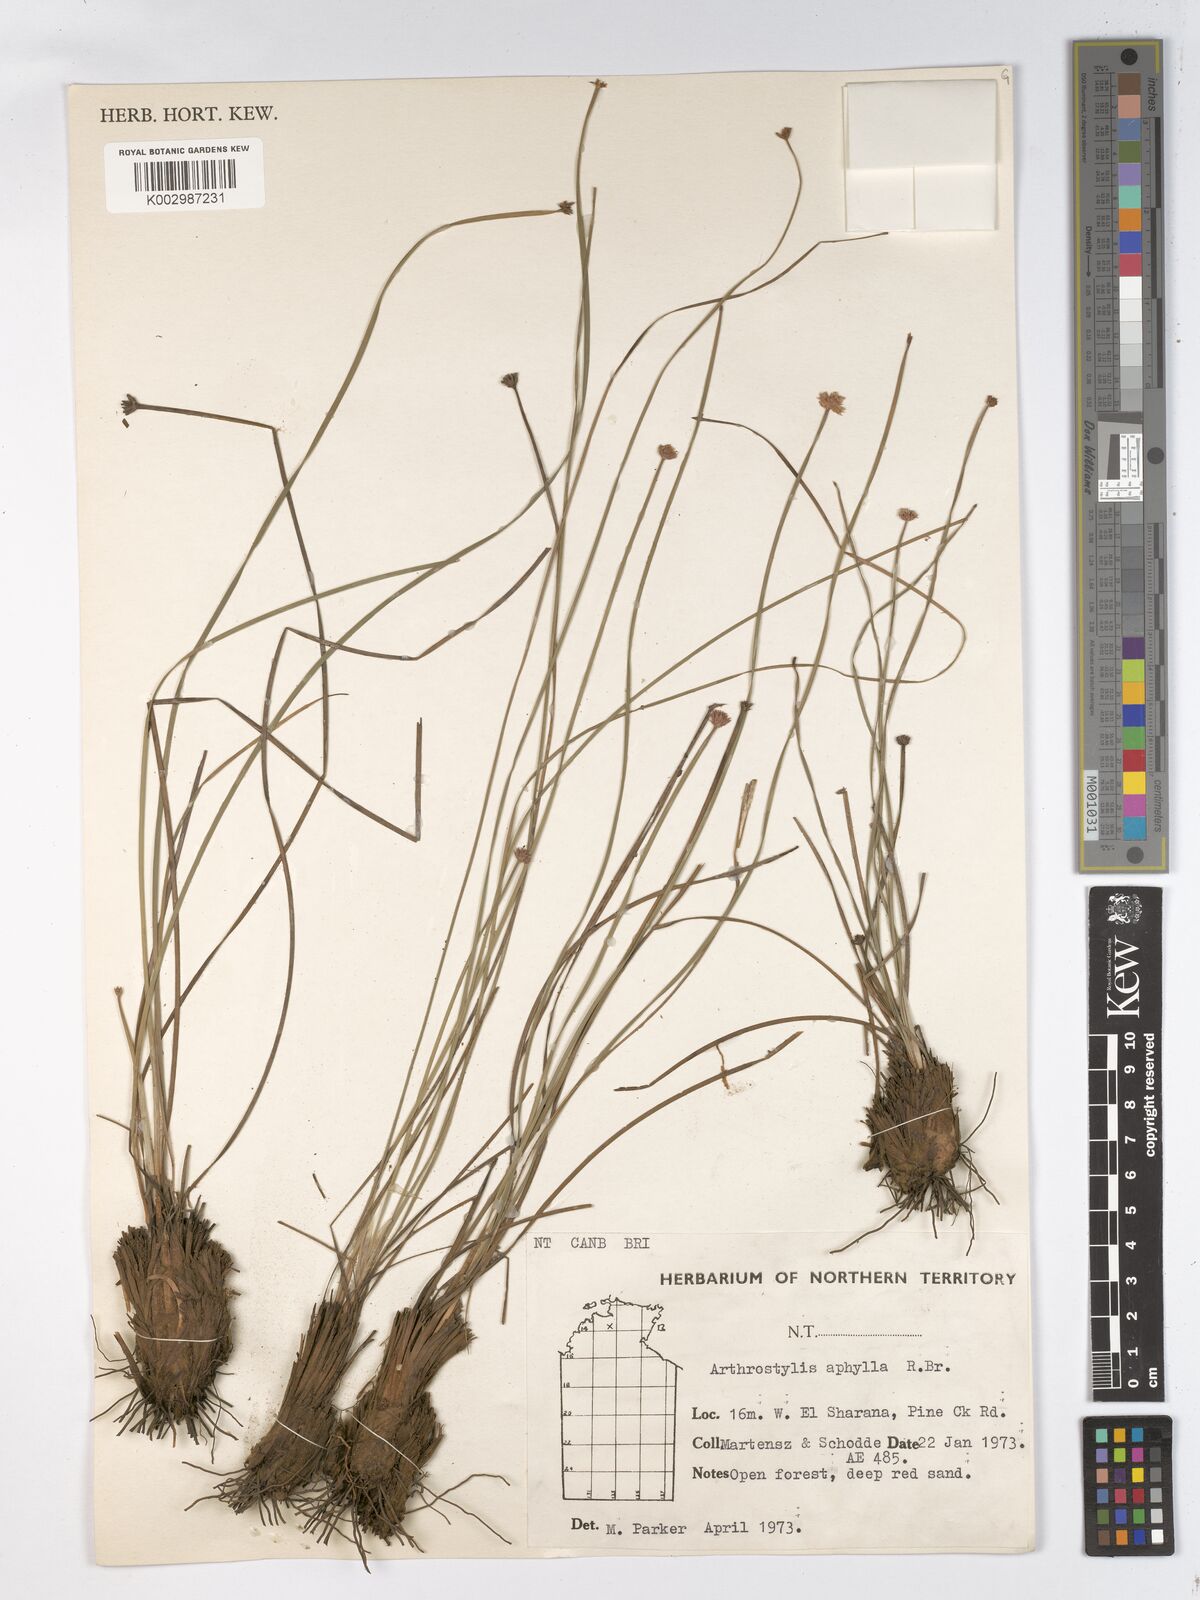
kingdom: Plantae
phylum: Tracheophyta
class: Liliopsida
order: Poales
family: Cyperaceae
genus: Arthrostylis
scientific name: Arthrostylis aphylla
